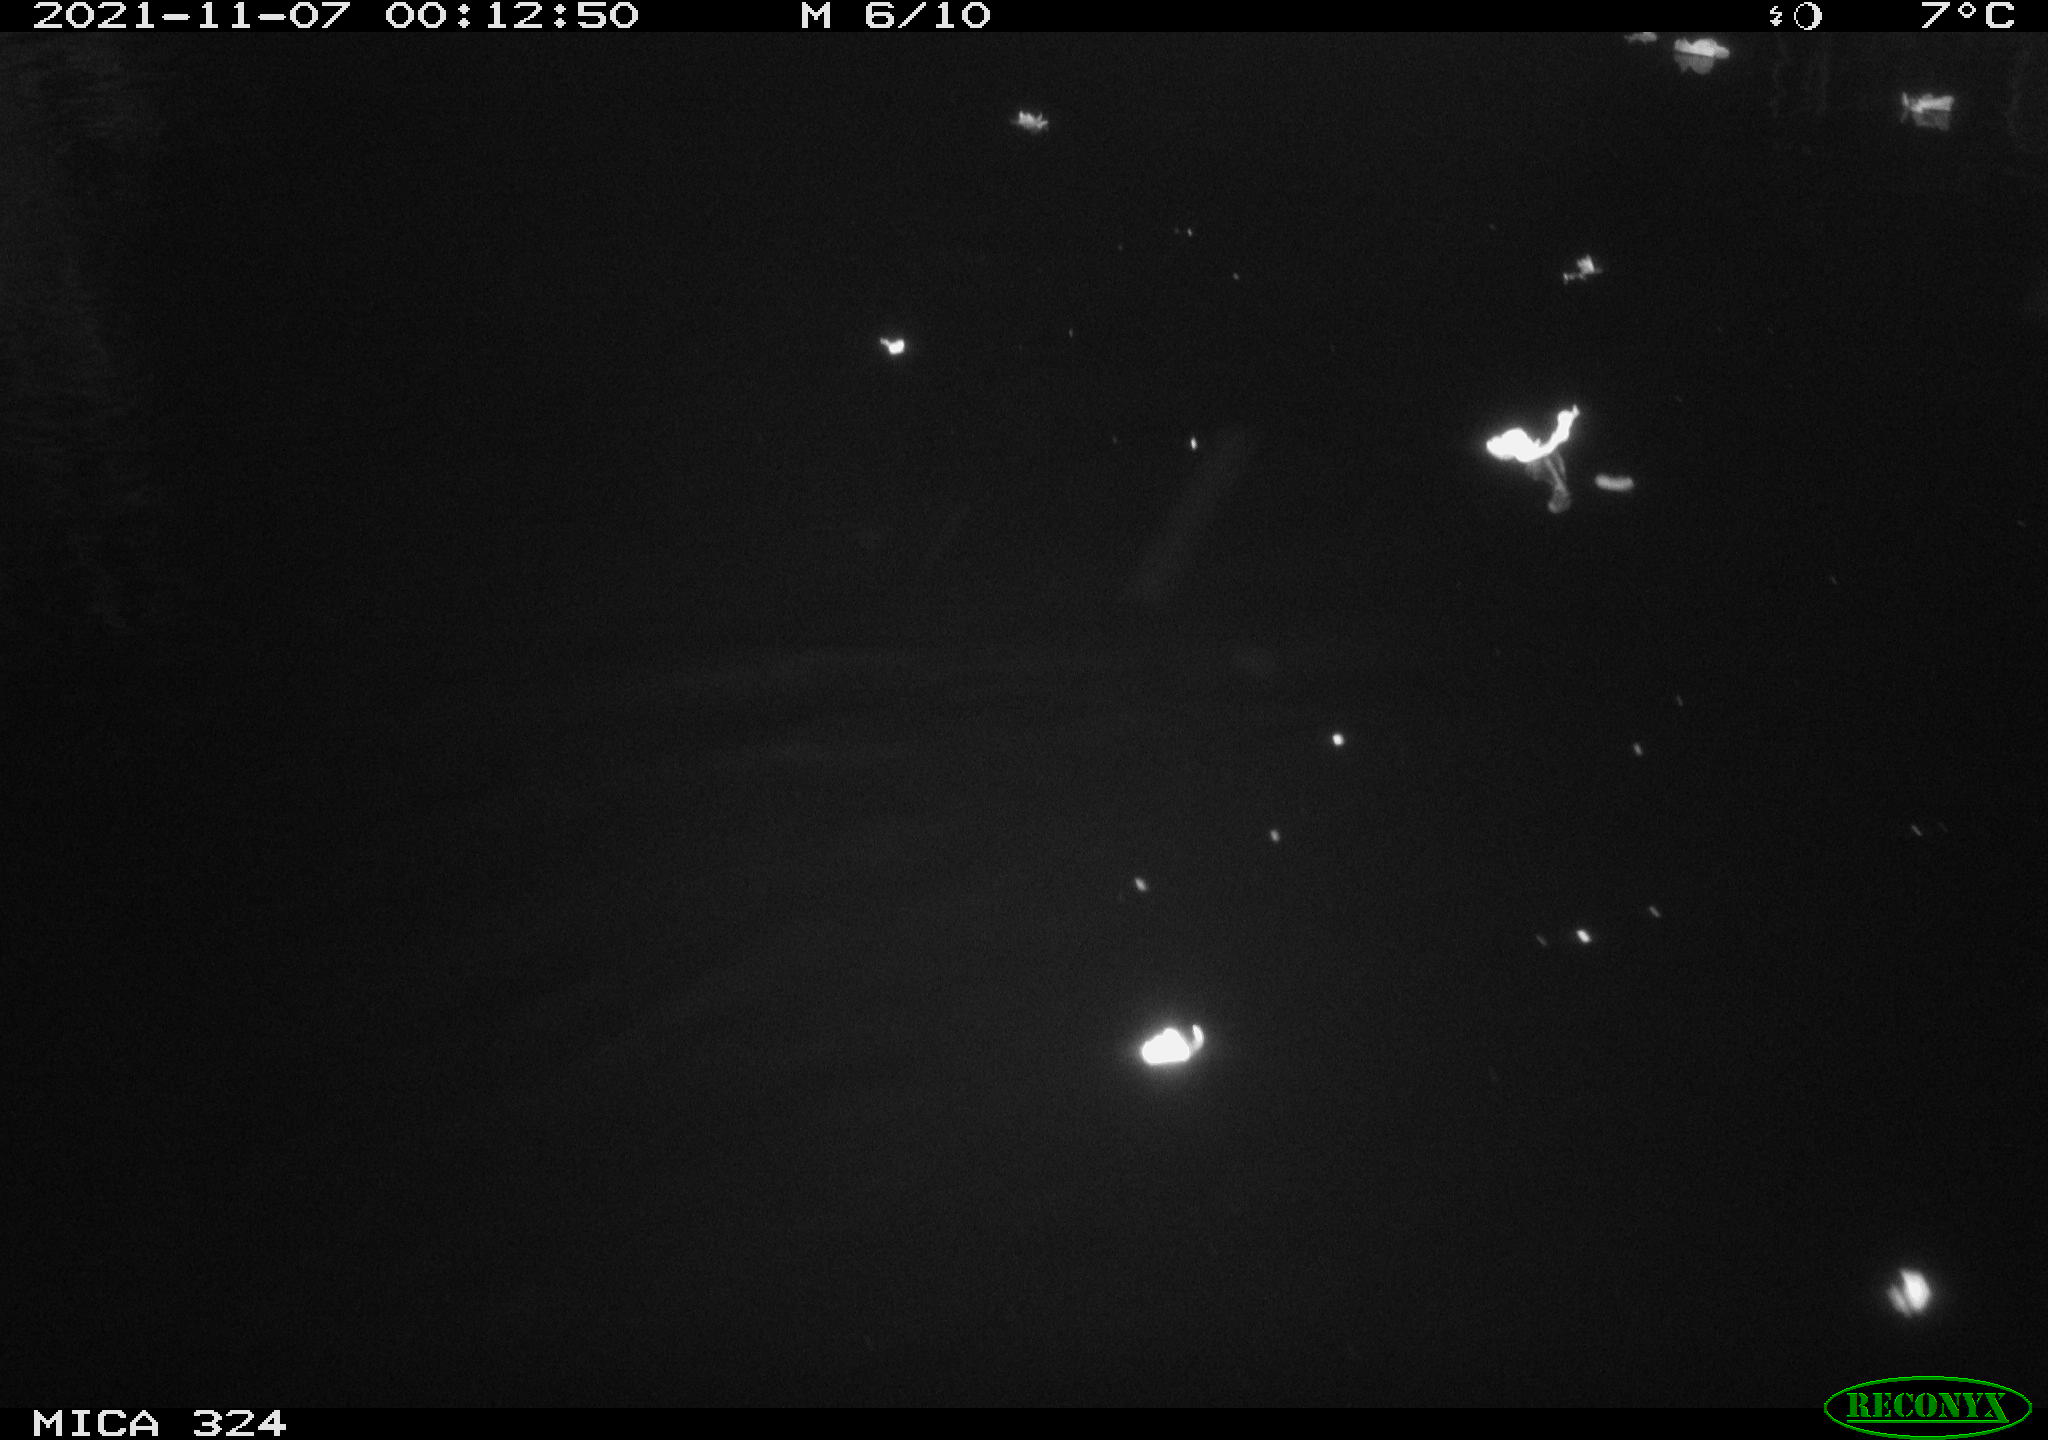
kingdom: Animalia
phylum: Chordata
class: Mammalia
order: Rodentia
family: Cricetidae
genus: Ondatra
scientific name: Ondatra zibethicus
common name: Muskrat
